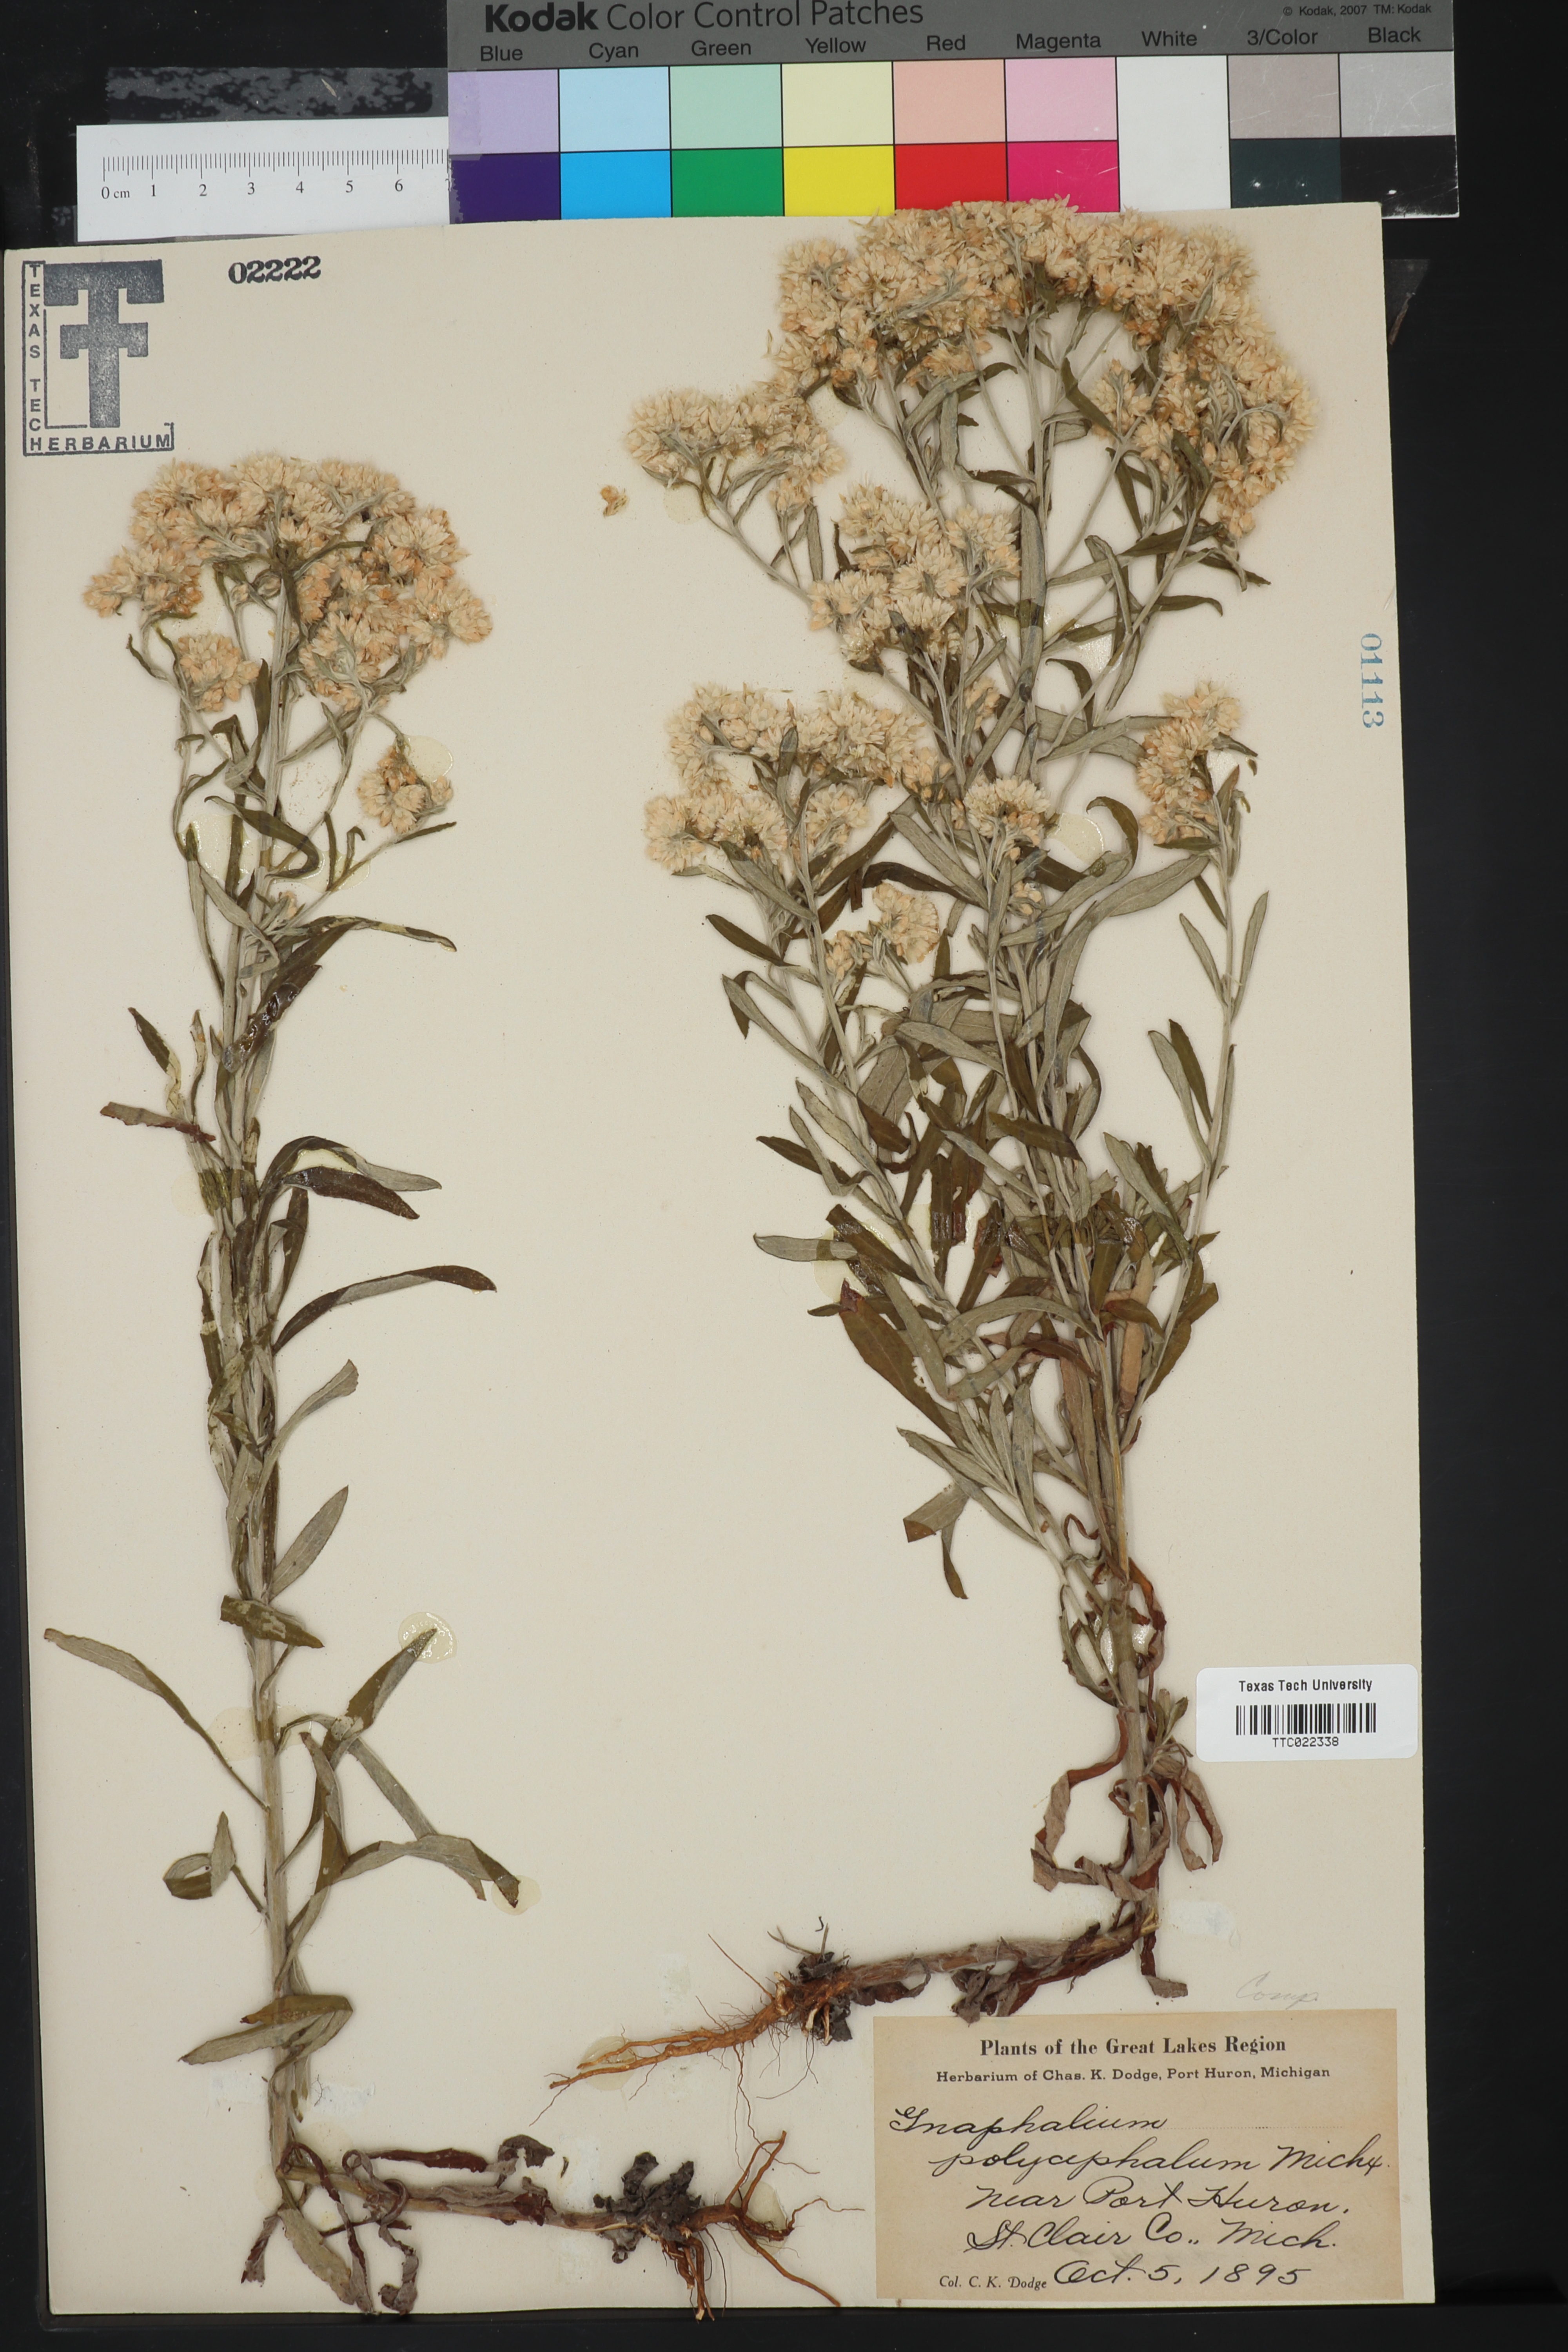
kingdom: Plantae
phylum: Tracheophyta
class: Magnoliopsida
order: Asterales
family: Asteraceae
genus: Helichrysum
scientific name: Helichrysum nodiflorum
